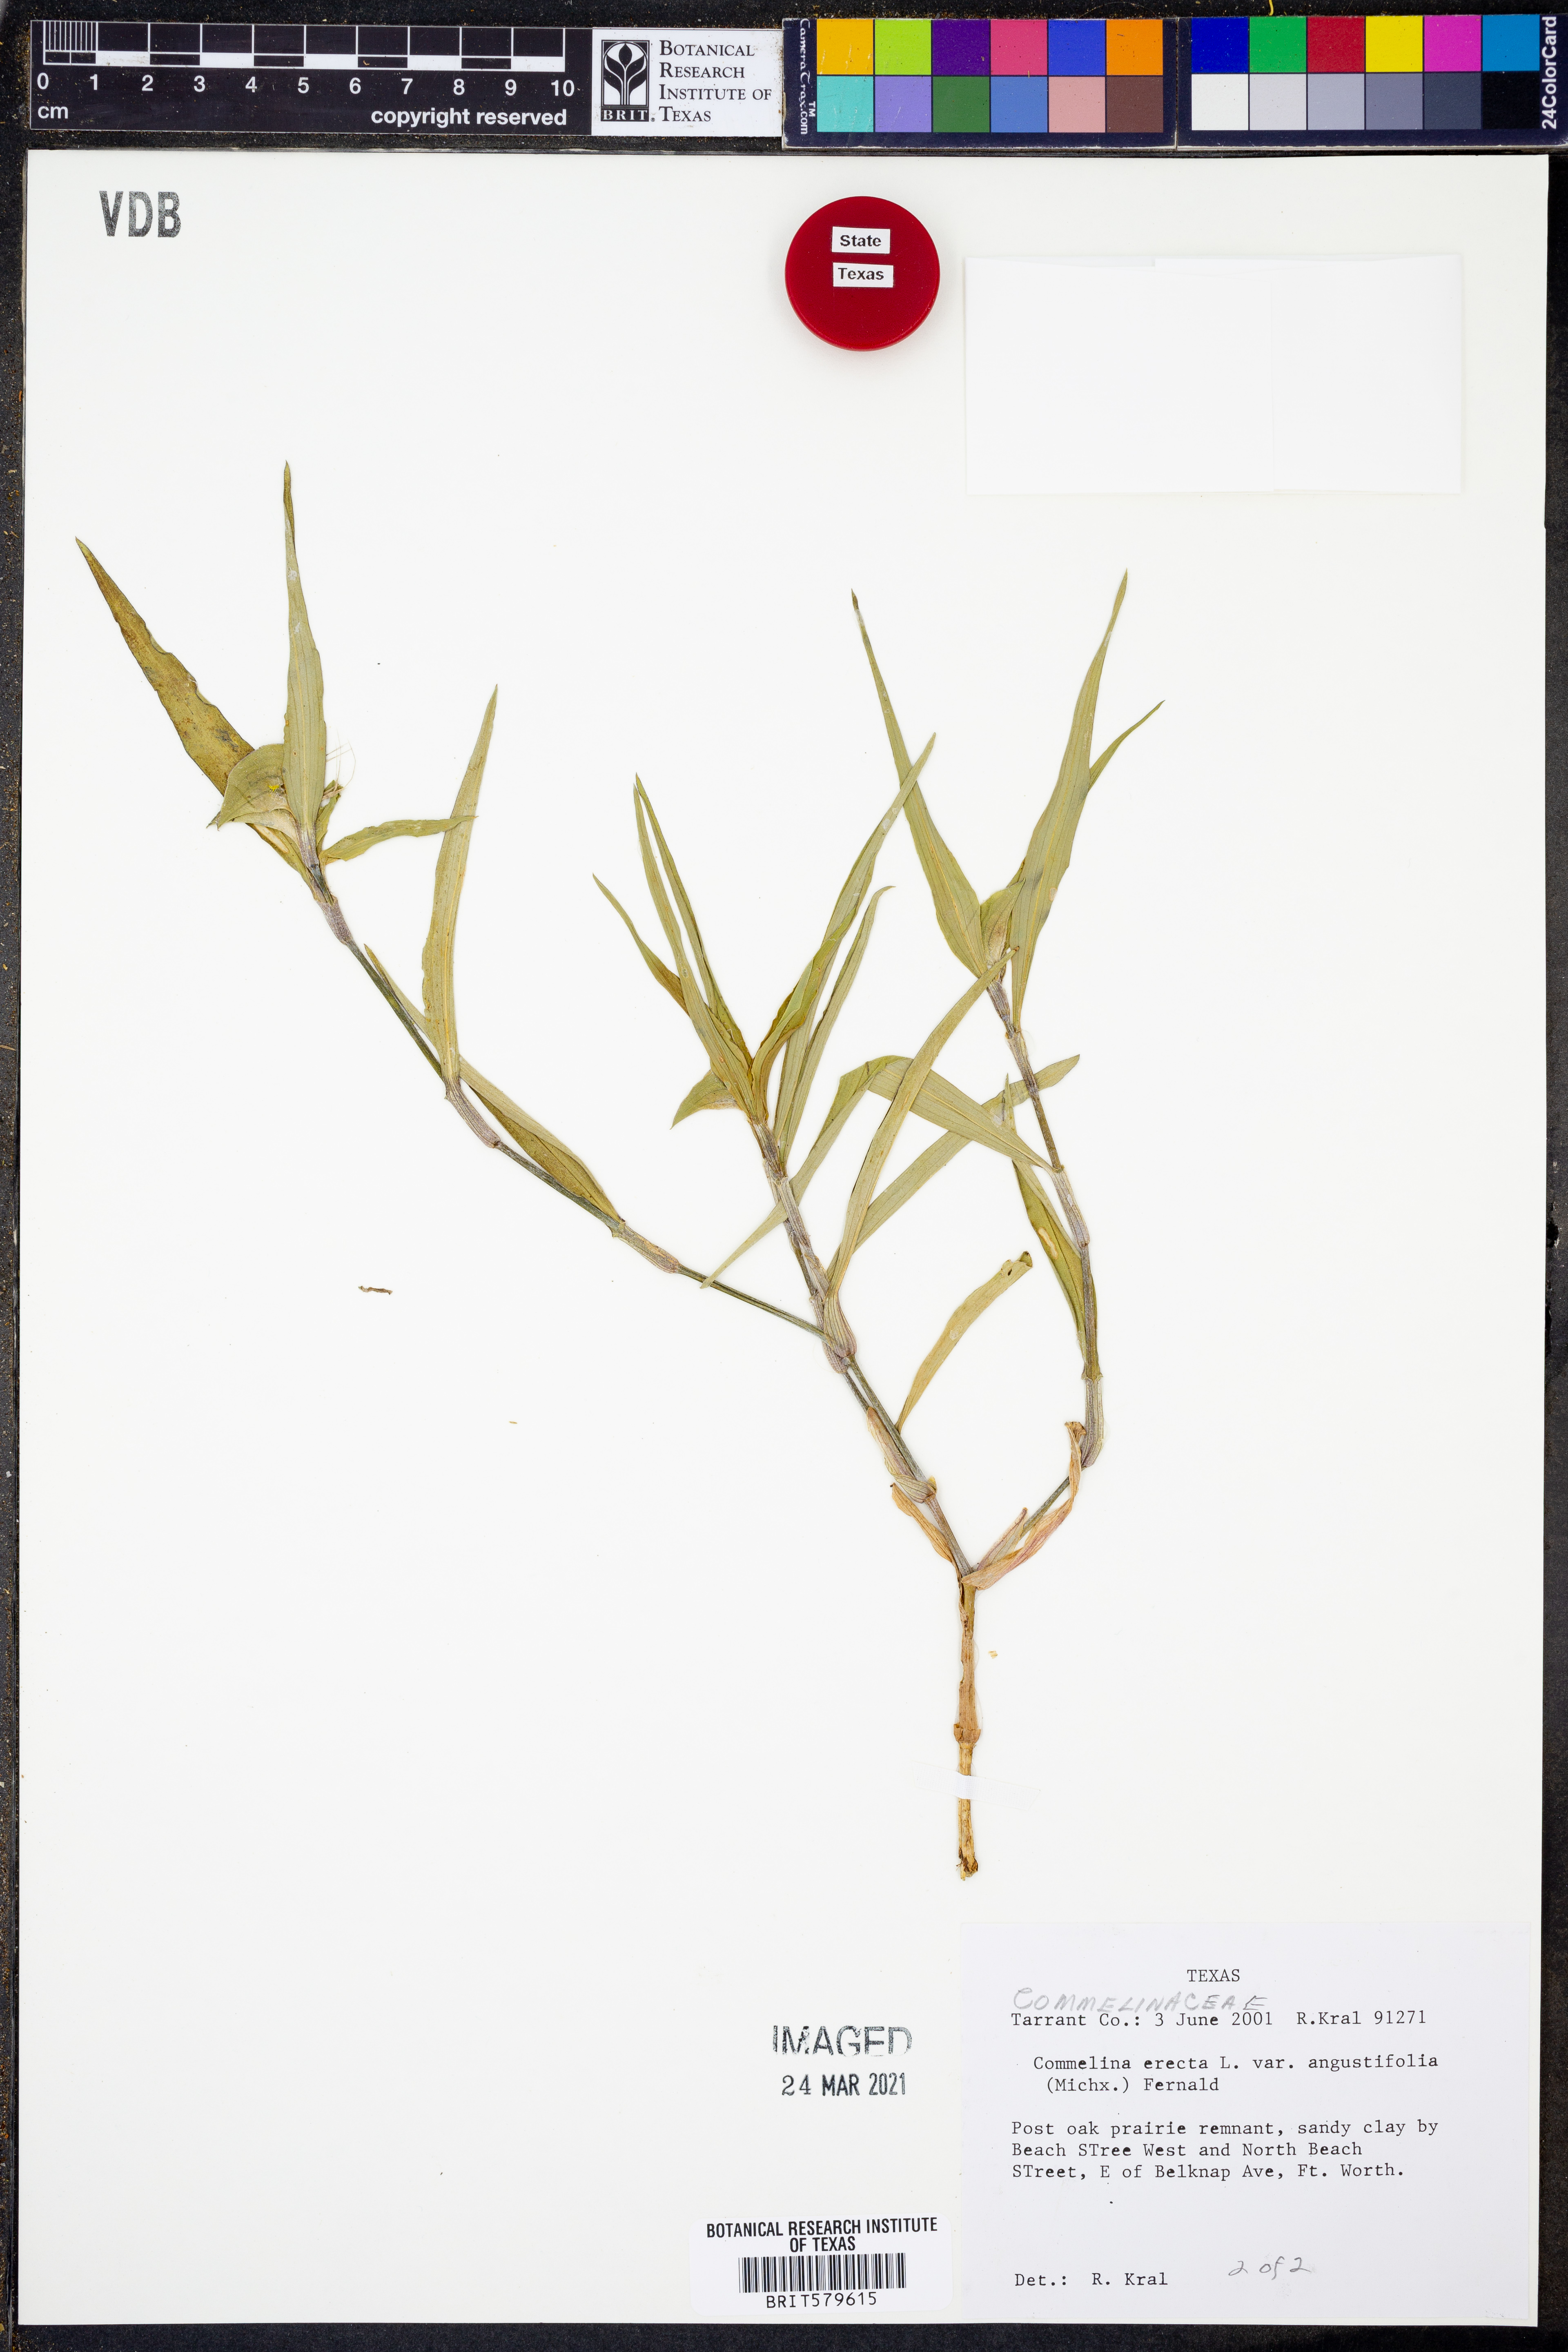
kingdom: Plantae
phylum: Tracheophyta
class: Liliopsida
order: Commelinales
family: Commelinaceae
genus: Commelina
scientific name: Commelina erecta
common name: Blousel blommetjie
